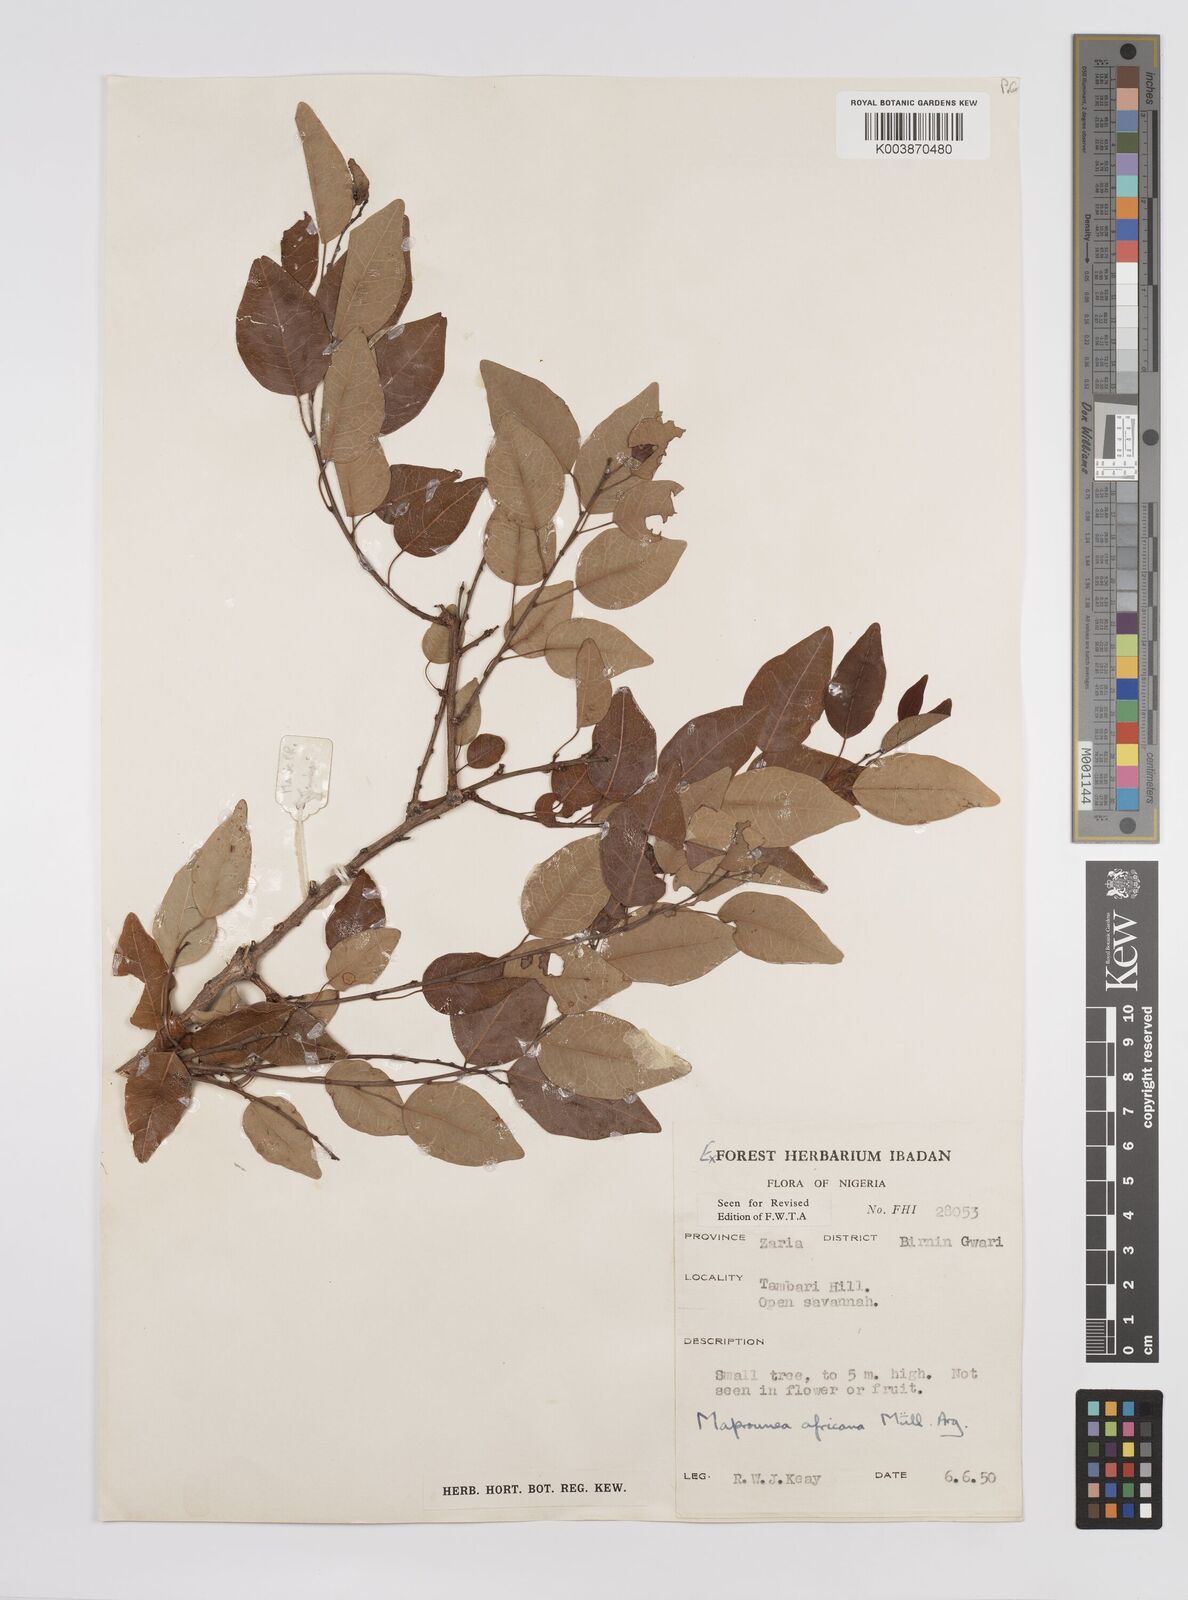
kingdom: Plantae
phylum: Tracheophyta
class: Magnoliopsida
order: Malpighiales
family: Euphorbiaceae
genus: Maprounea
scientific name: Maprounea africana
